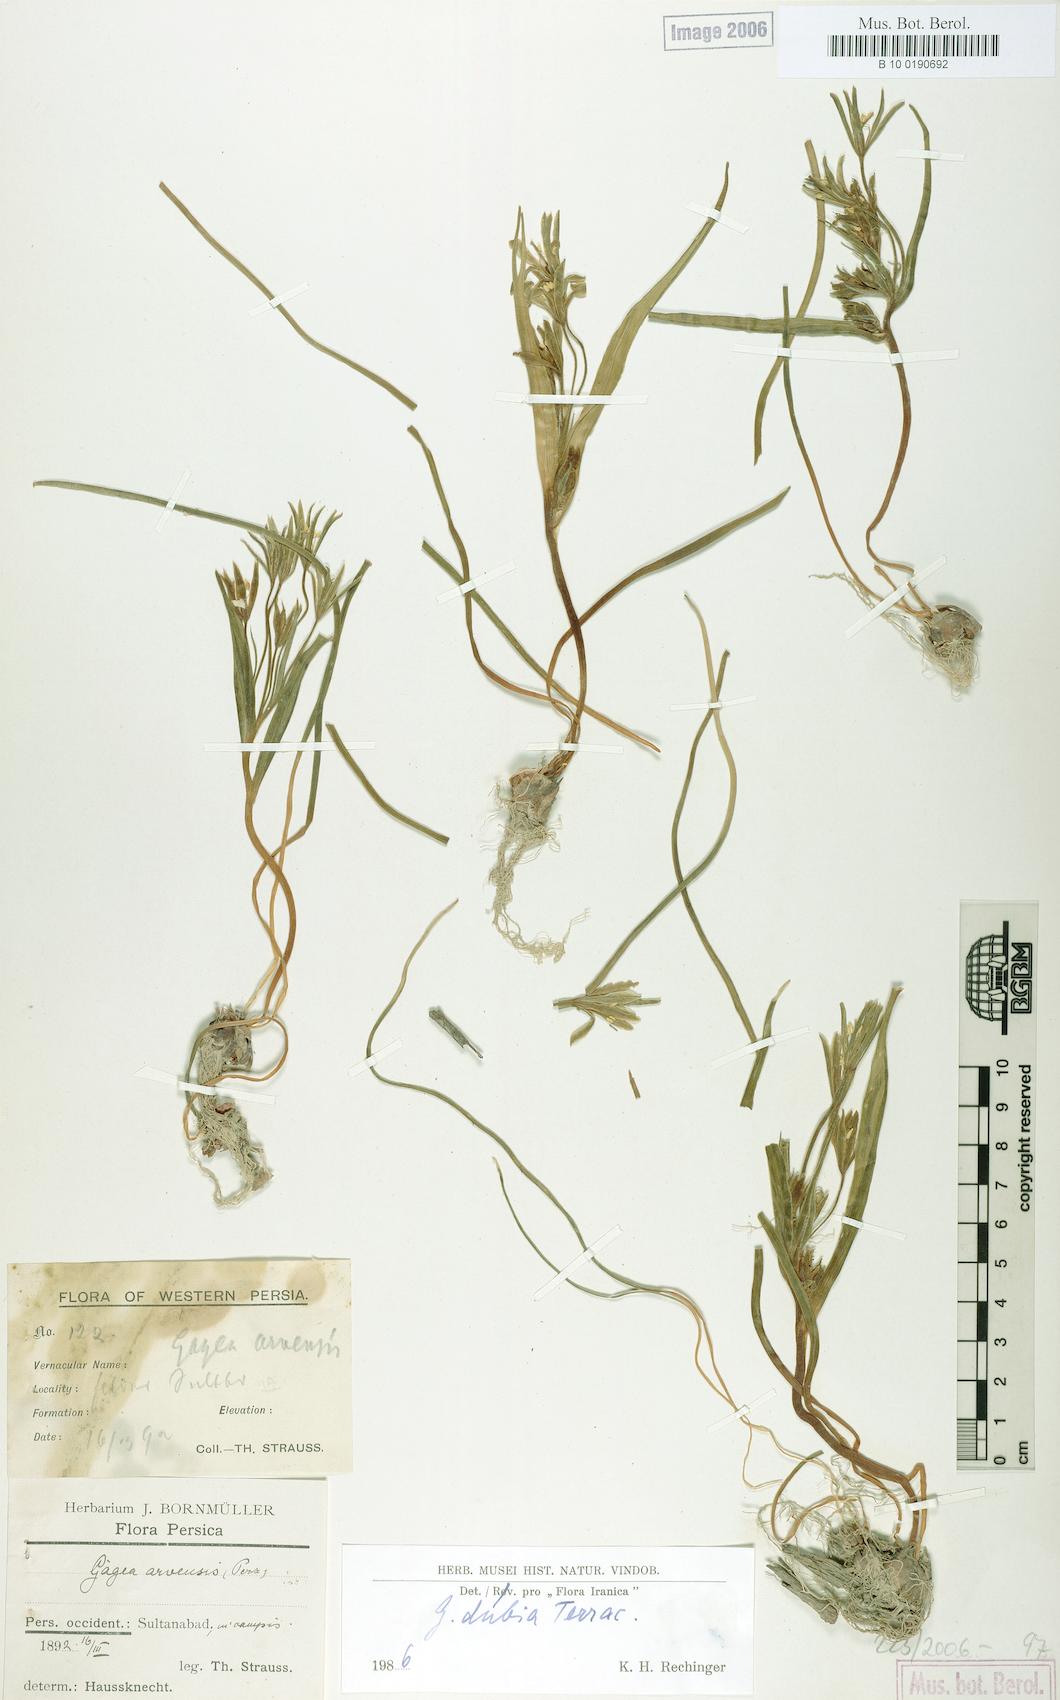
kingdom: Plantae
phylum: Tracheophyta
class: Liliopsida
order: Liliales
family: Liliaceae
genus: Gagea
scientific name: Gagea dubia
